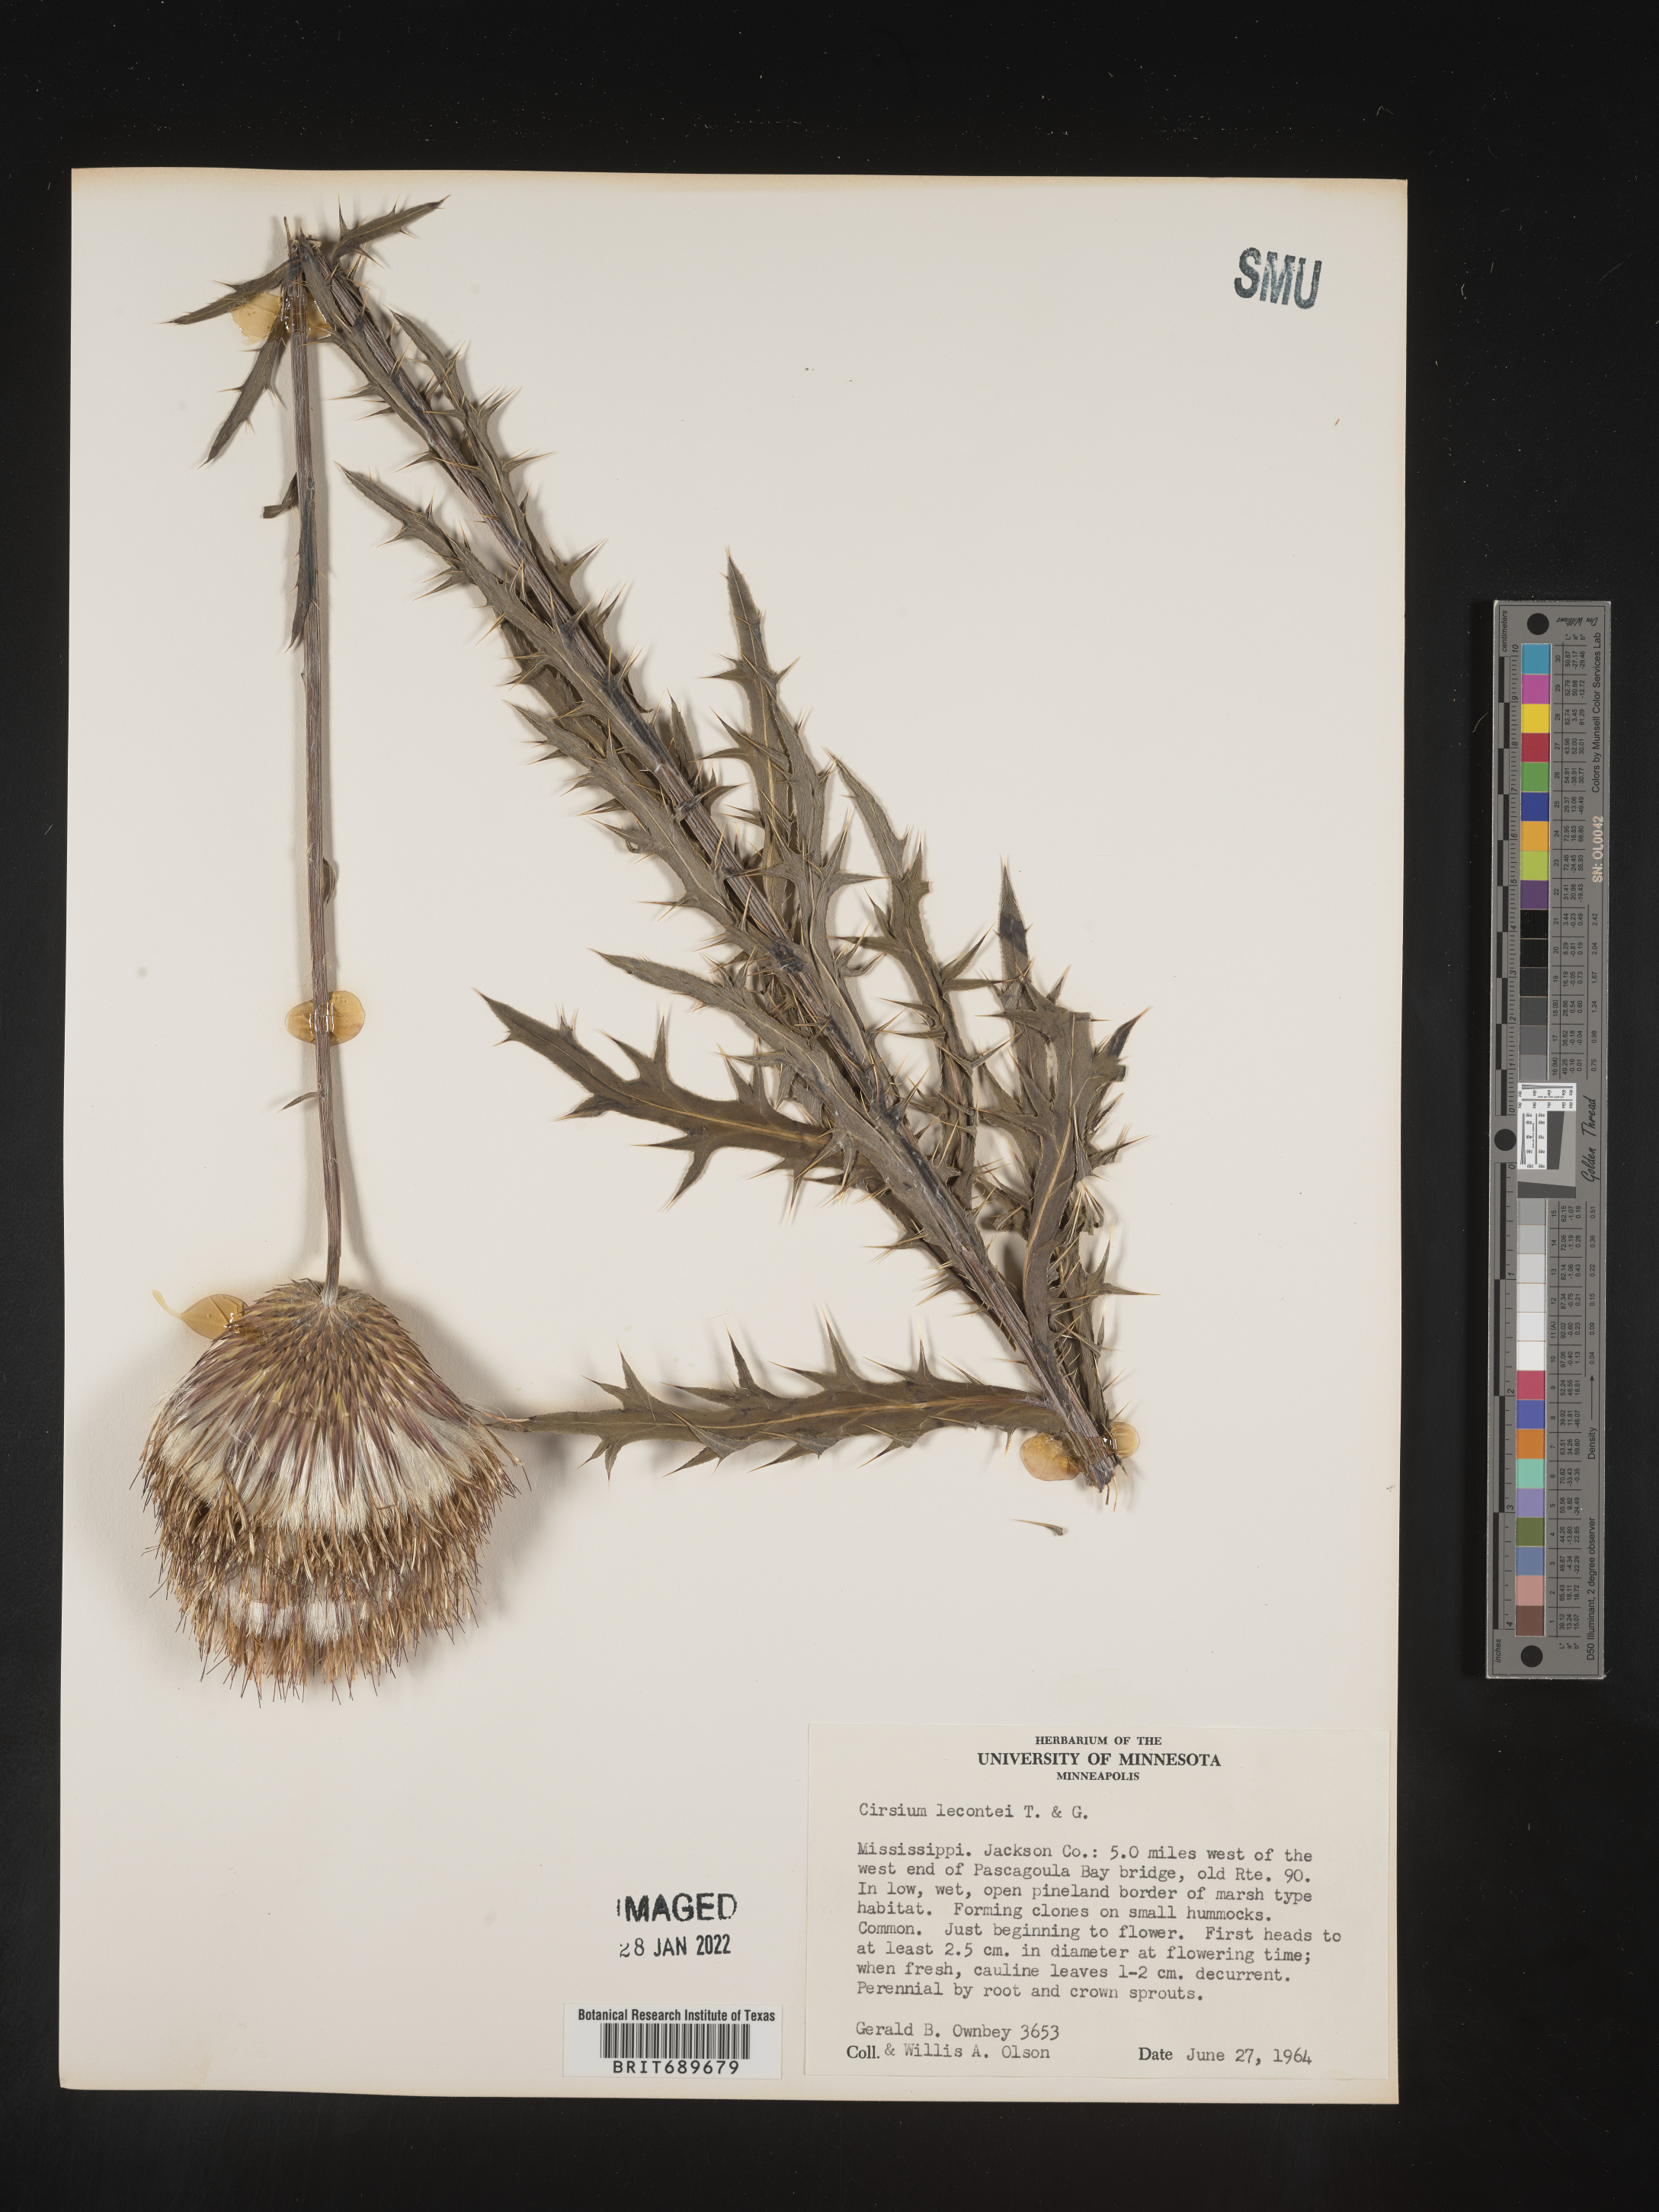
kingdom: Plantae
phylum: Tracheophyta
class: Magnoliopsida
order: Asterales
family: Asteraceae
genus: Cirsium
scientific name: Cirsium lecontei
